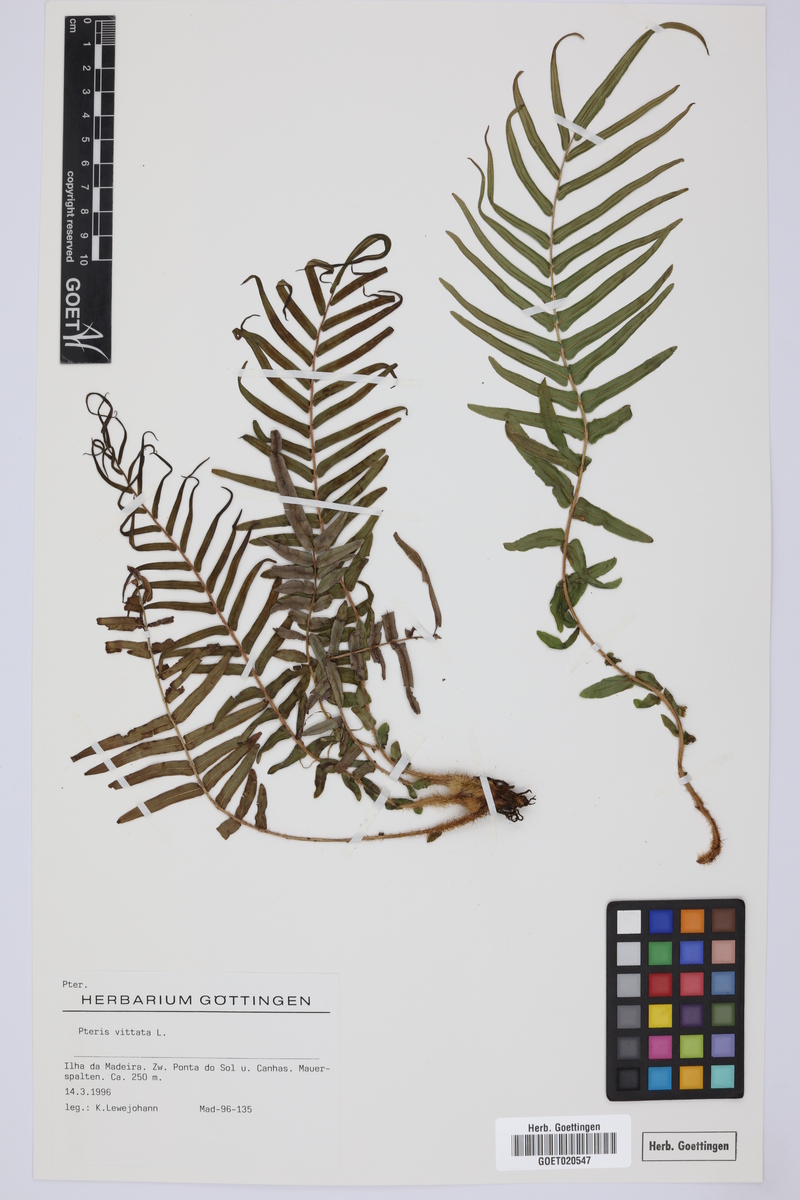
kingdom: Plantae
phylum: Tracheophyta
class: Polypodiopsida
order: Polypodiales
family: Pteridaceae
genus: Pteris
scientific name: Pteris vittata
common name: Ladder brake
